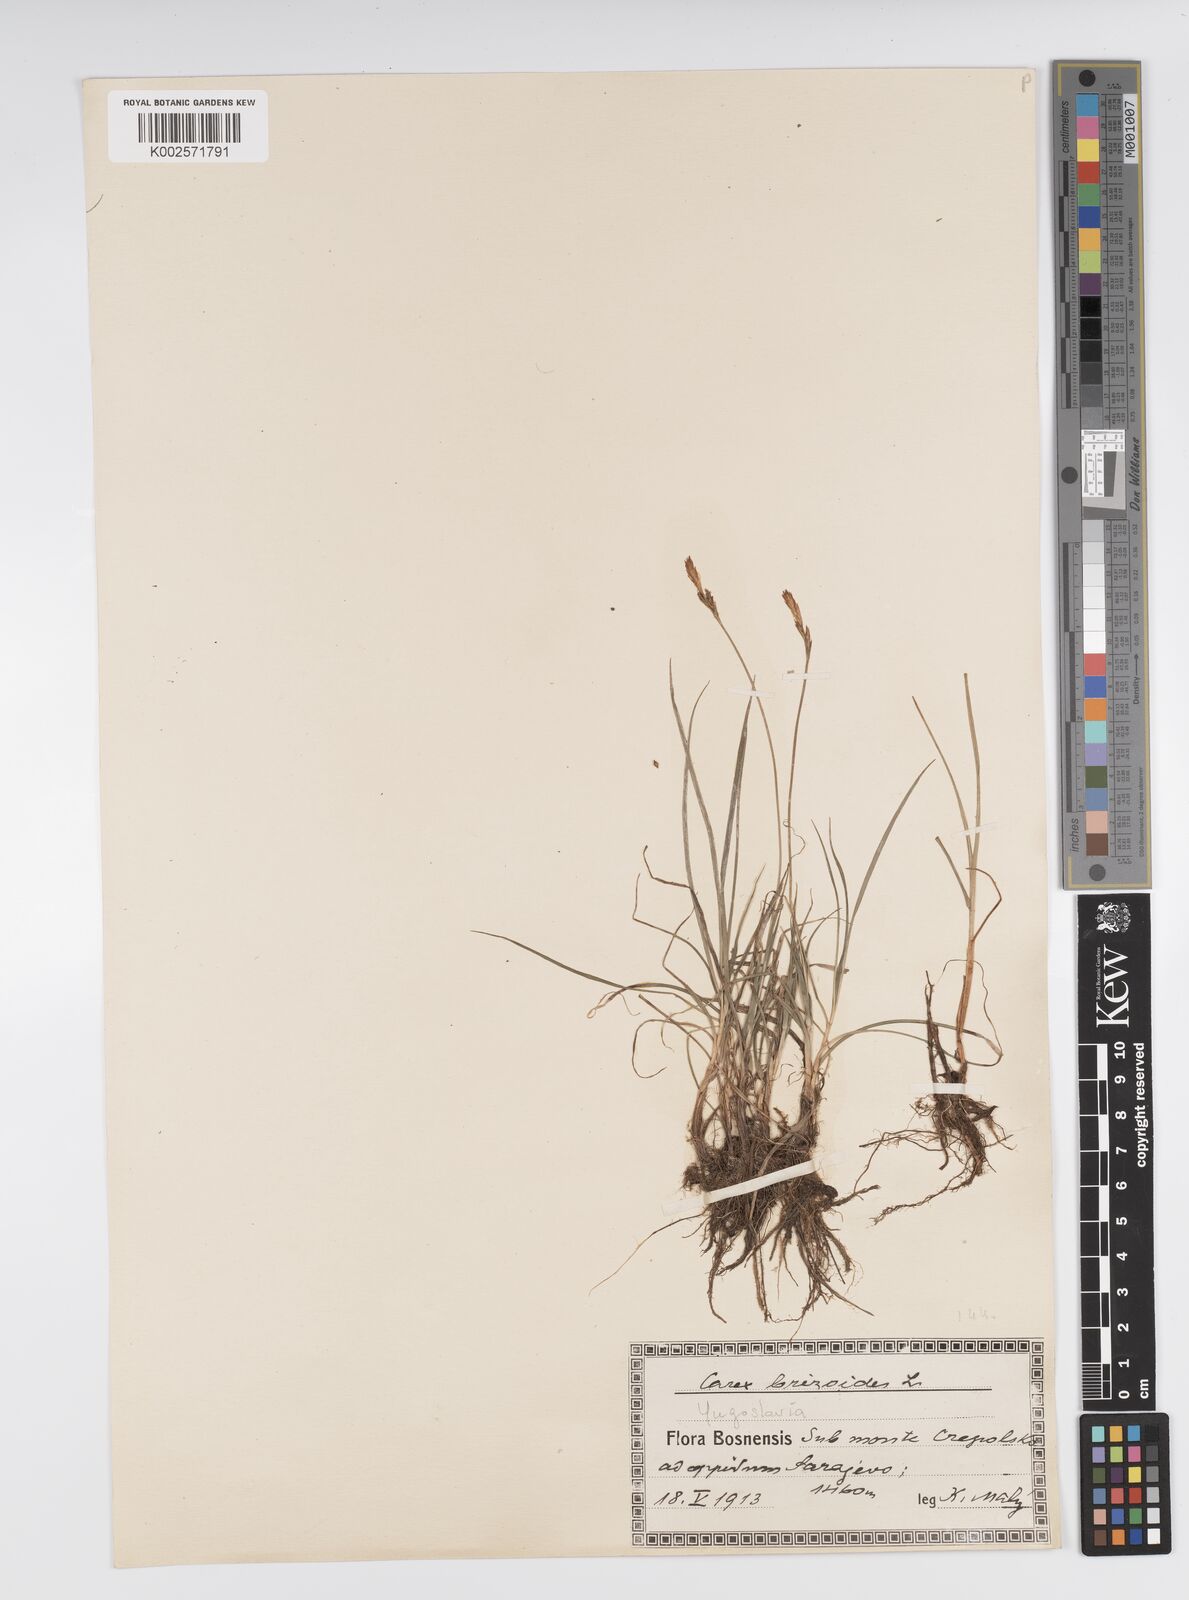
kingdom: Plantae
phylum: Tracheophyta
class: Liliopsida
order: Poales
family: Cyperaceae
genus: Carex
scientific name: Carex caryophyllea
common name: Spring sedge
